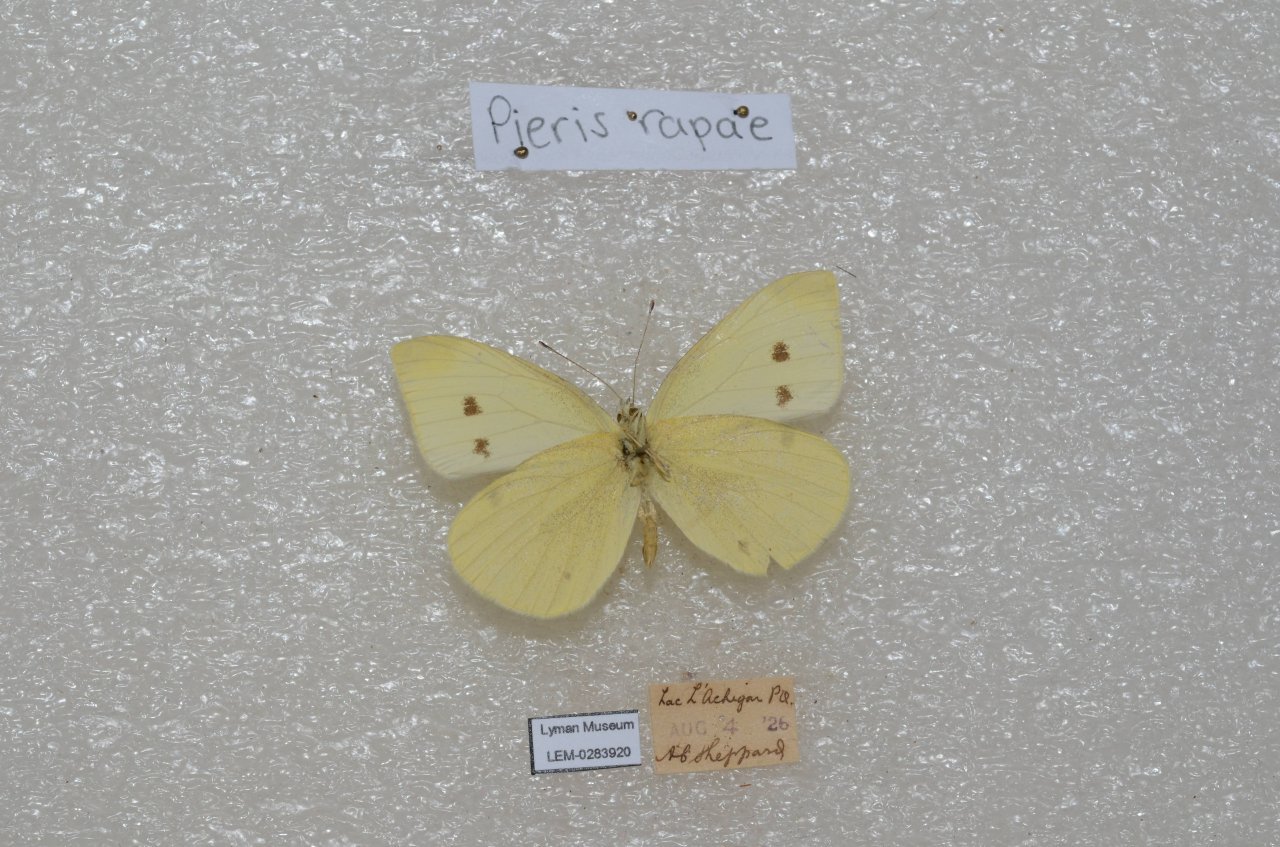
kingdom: Animalia
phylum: Arthropoda
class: Insecta
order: Lepidoptera
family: Pieridae
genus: Pieris
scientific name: Pieris rapae
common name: Cabbage White
